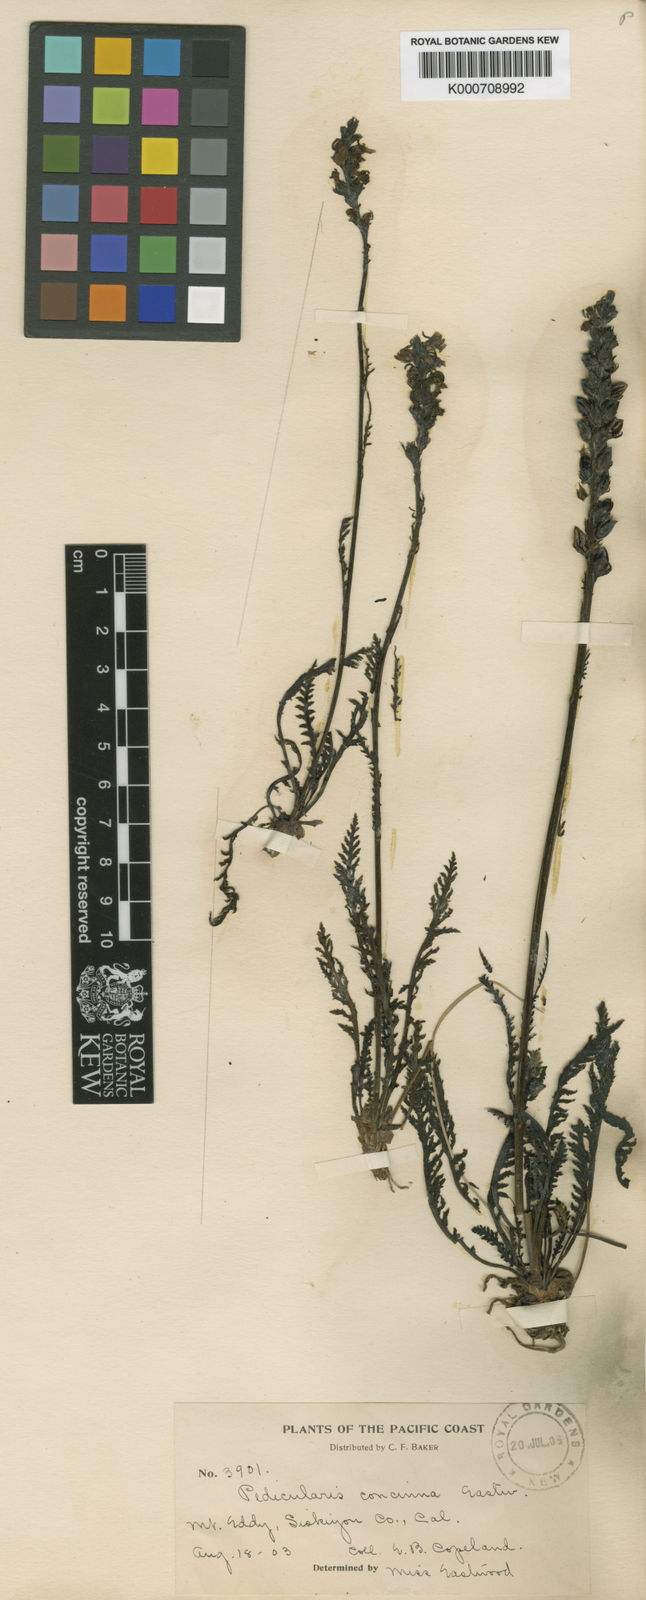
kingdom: Plantae
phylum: Tracheophyta
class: Magnoliopsida
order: Lamiales
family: Orobanchaceae
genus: Pedicularis
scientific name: Pedicularis attollens
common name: Slender pedicularis
